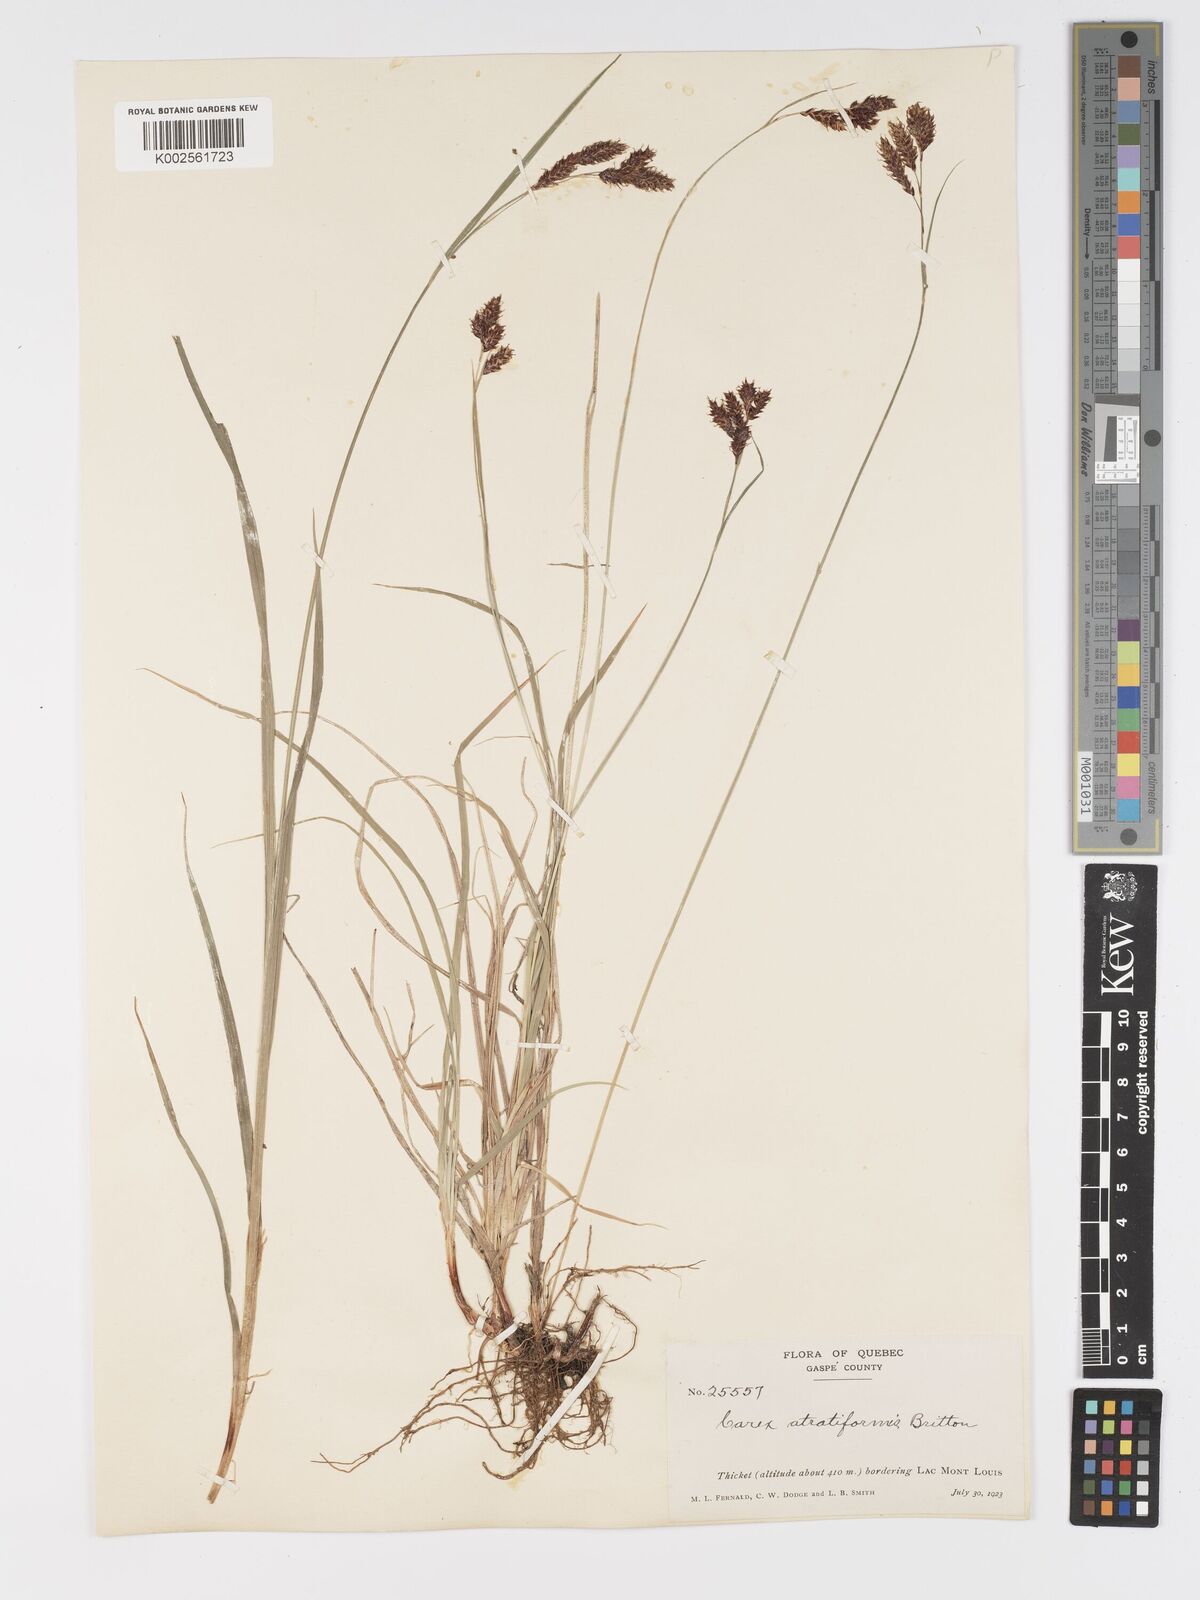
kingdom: Plantae
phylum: Tracheophyta
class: Liliopsida
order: Poales
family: Cyperaceae
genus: Carex
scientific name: Carex atratiformis
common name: Black sedge
